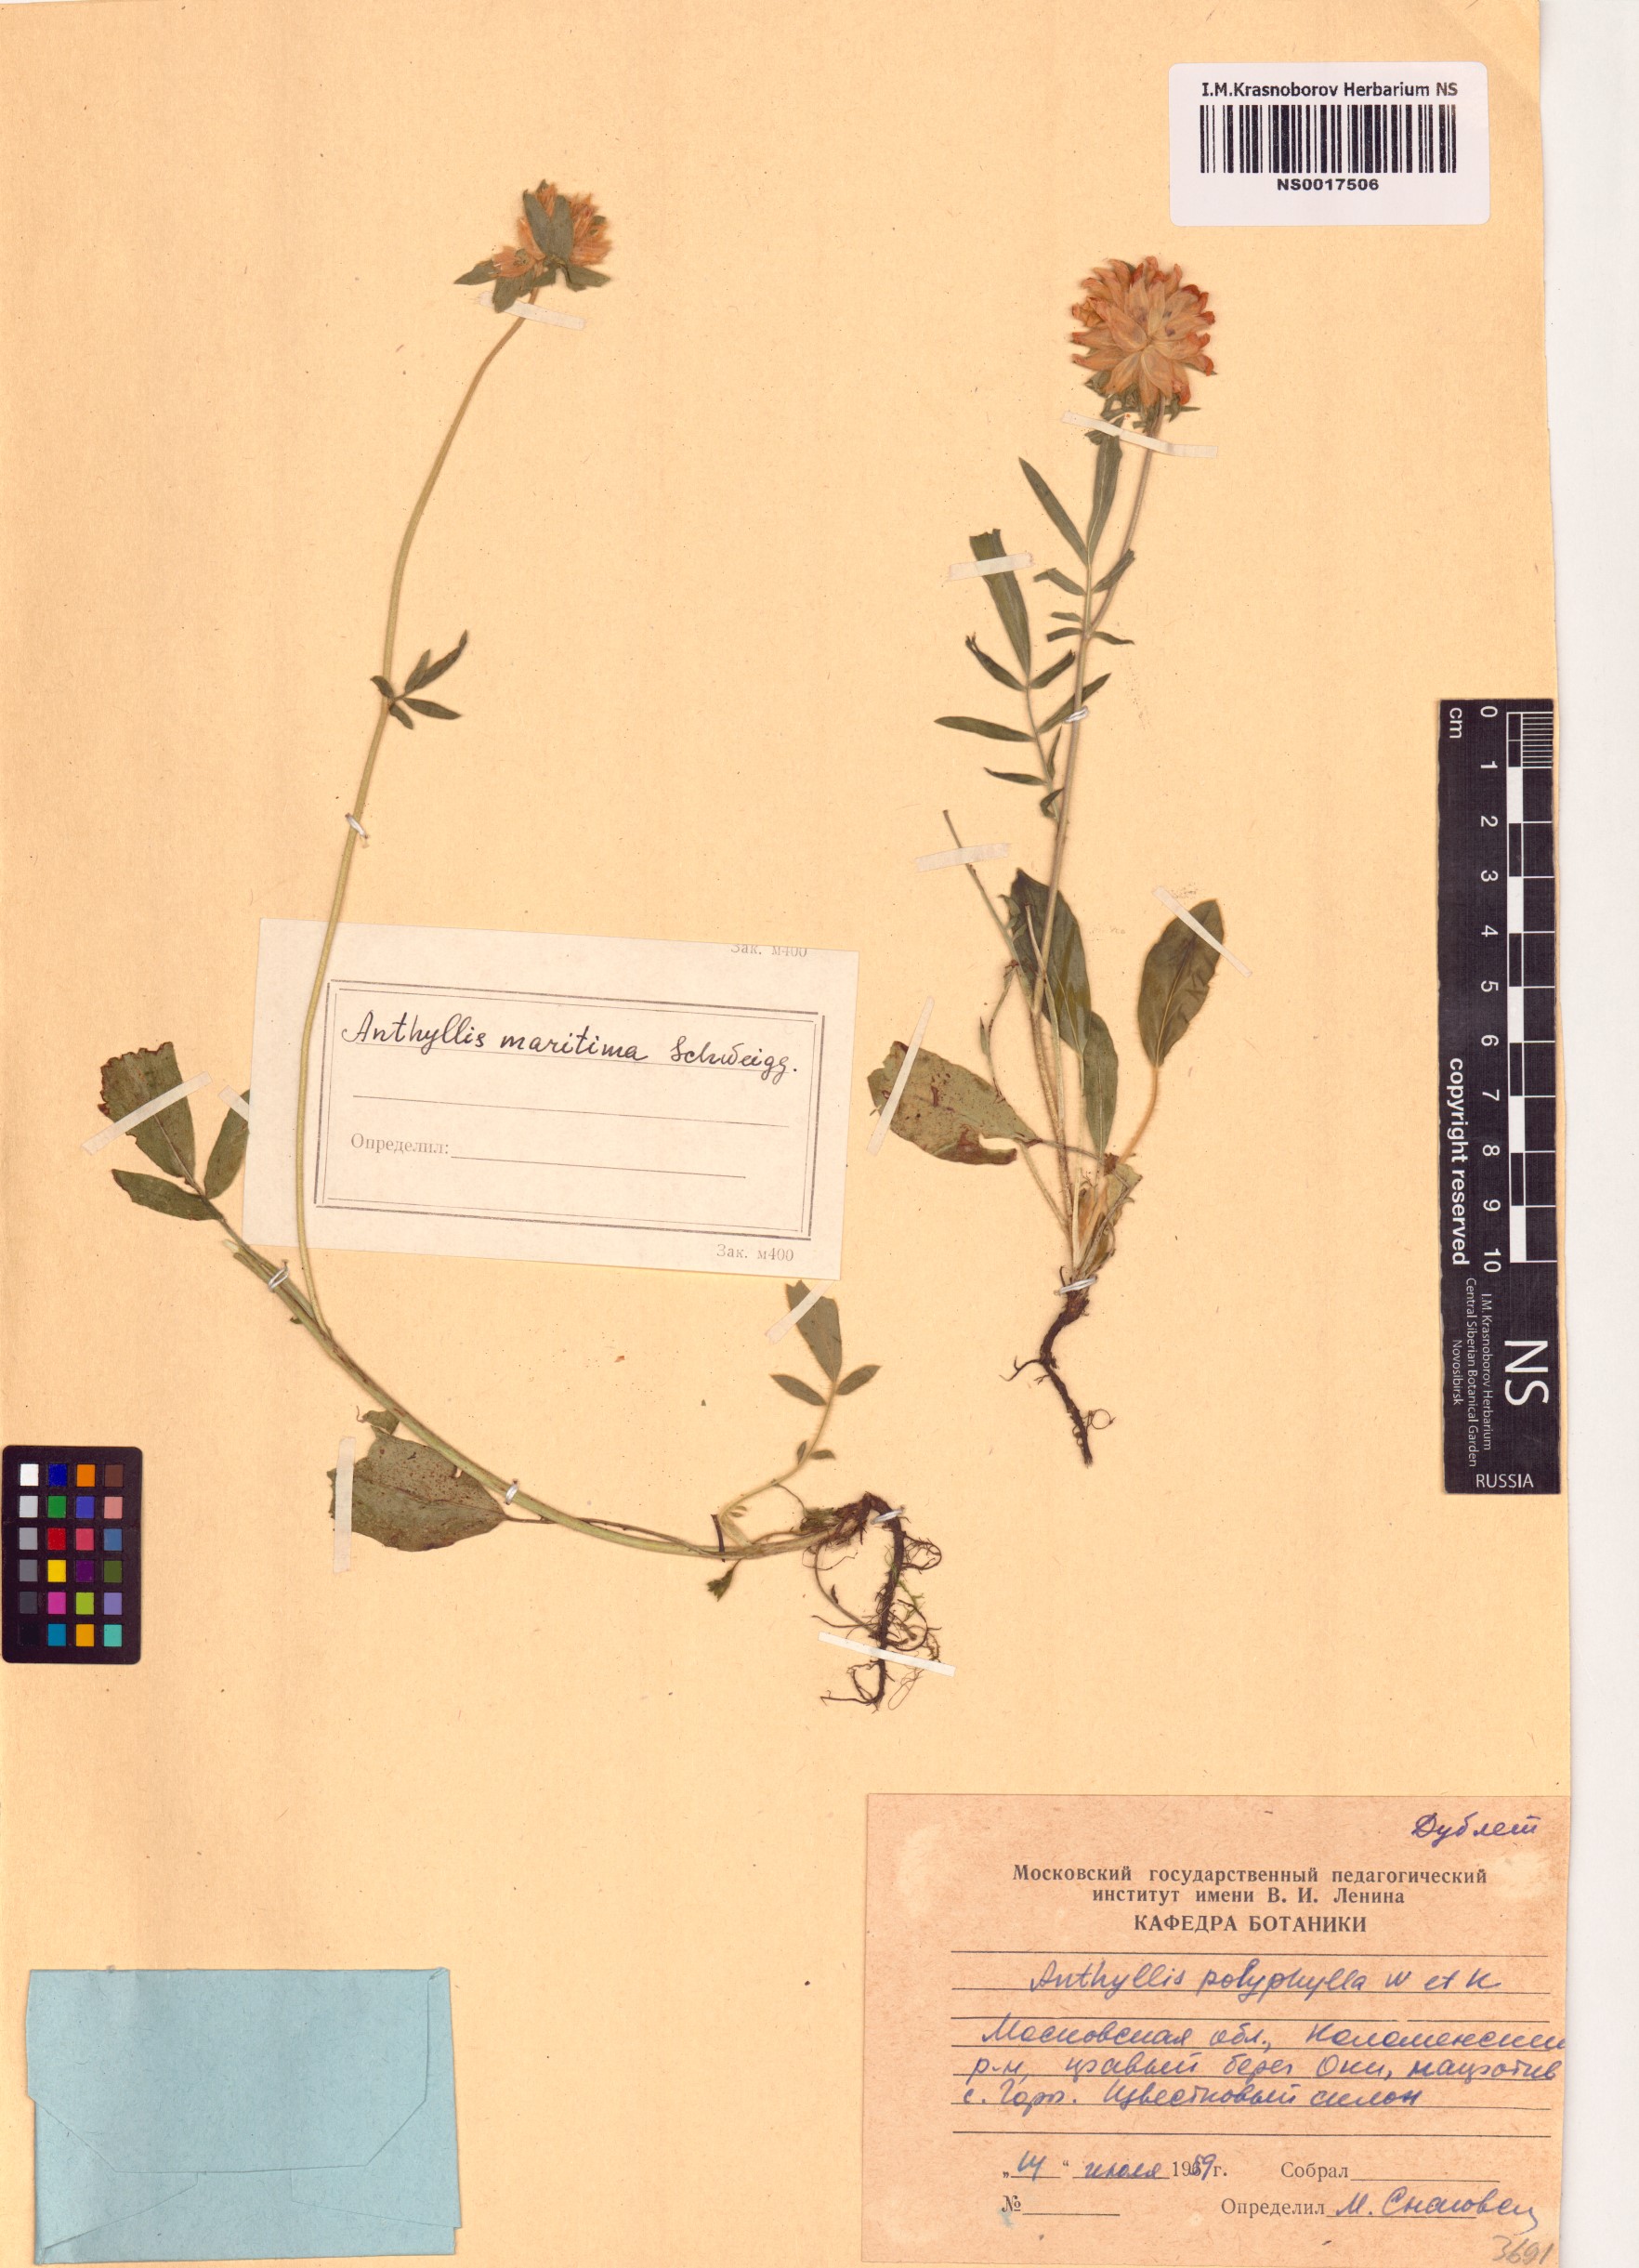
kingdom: Plantae
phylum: Tracheophyta
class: Magnoliopsida
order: Fabales
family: Fabaceae
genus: Anthyllis
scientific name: Anthyllis vulneraria
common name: Kidney vetch
